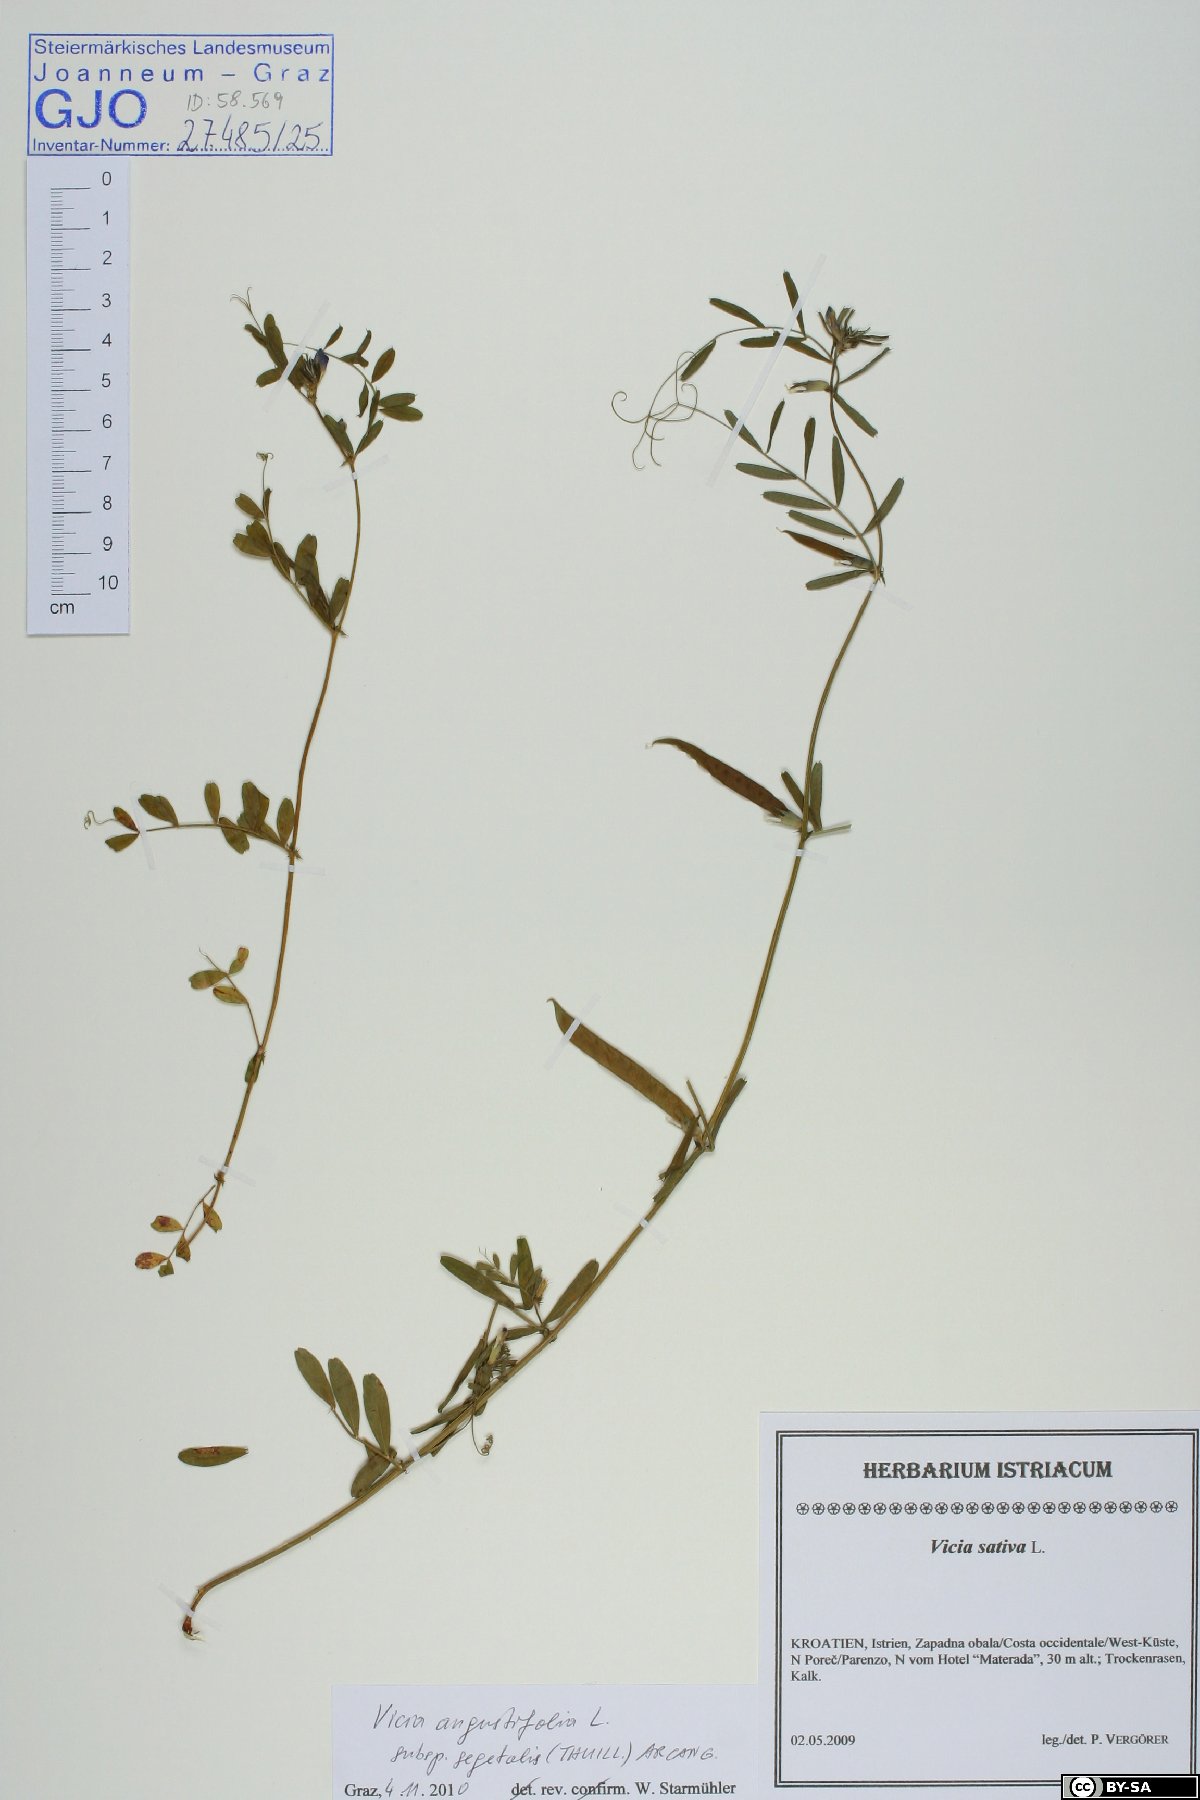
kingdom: Plantae
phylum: Tracheophyta
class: Magnoliopsida
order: Fabales
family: Fabaceae
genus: Vicia
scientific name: Vicia sativa
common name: Garden vetch
